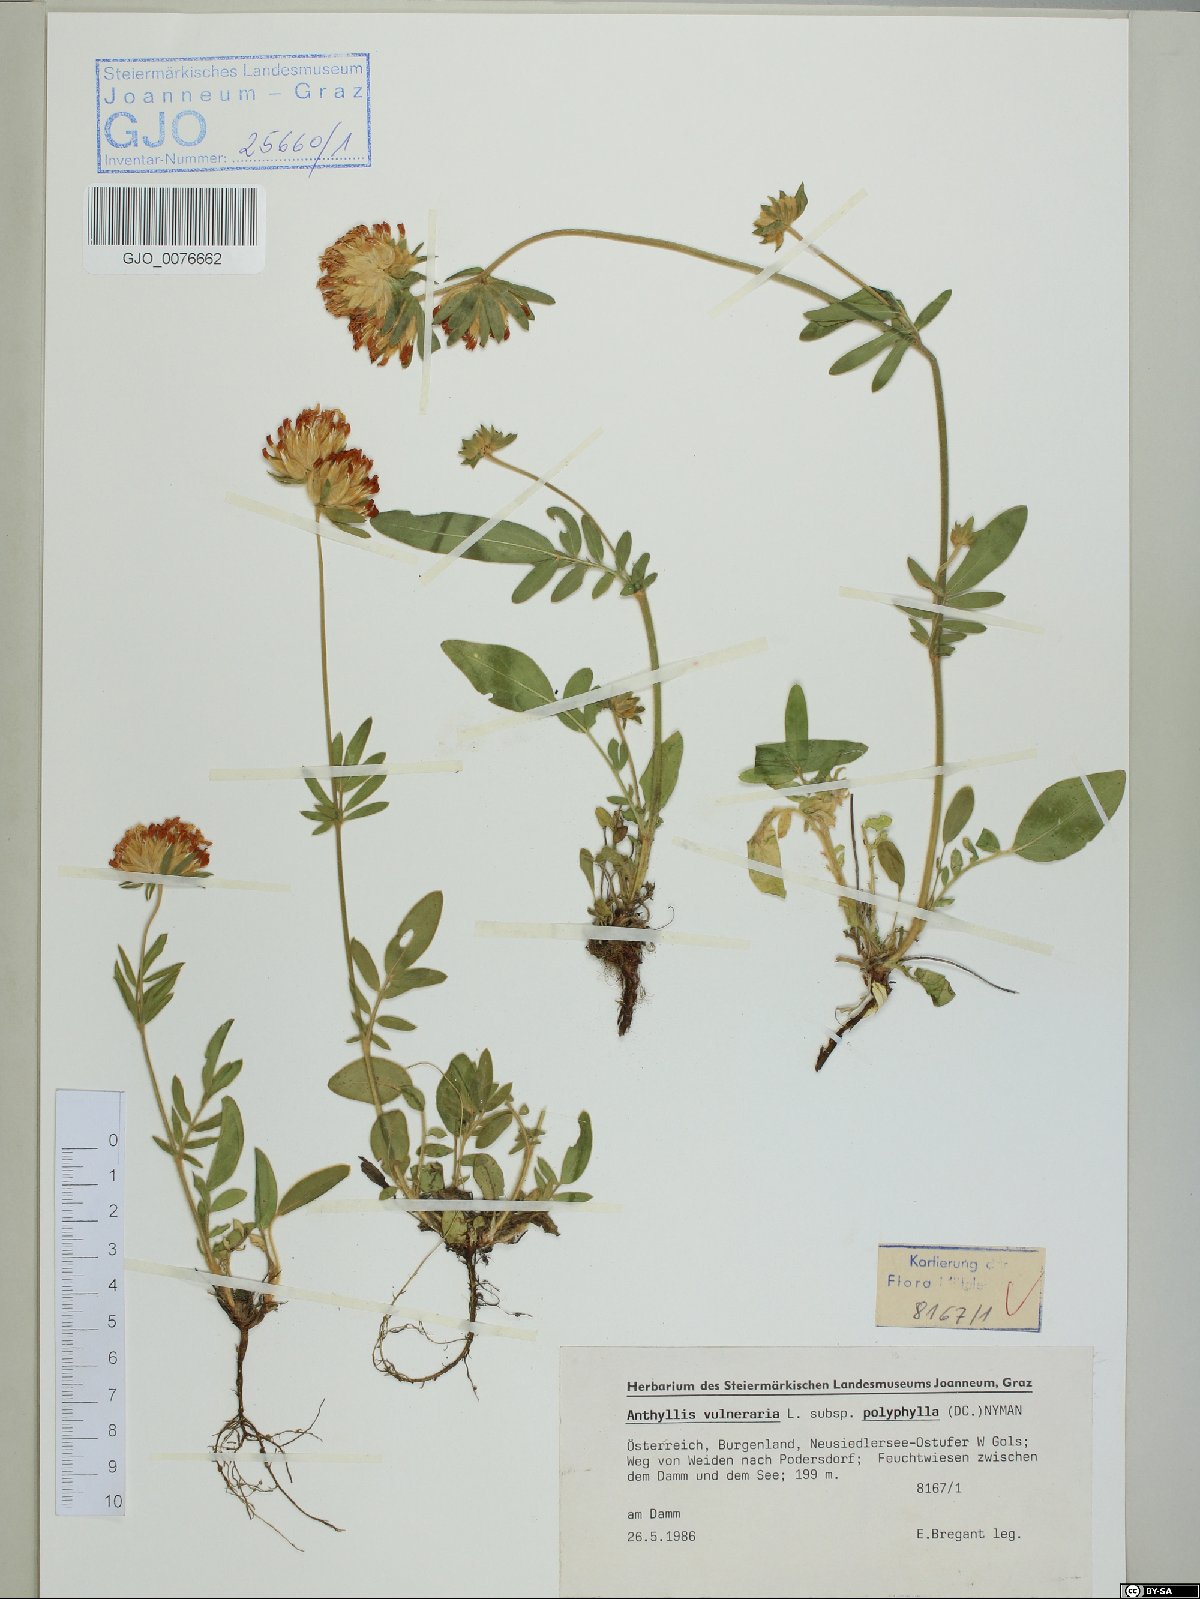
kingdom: Plantae
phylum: Tracheophyta
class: Magnoliopsida
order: Fabales
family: Fabaceae
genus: Anthyllis
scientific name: Anthyllis vulneraria
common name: Kidney vetch
